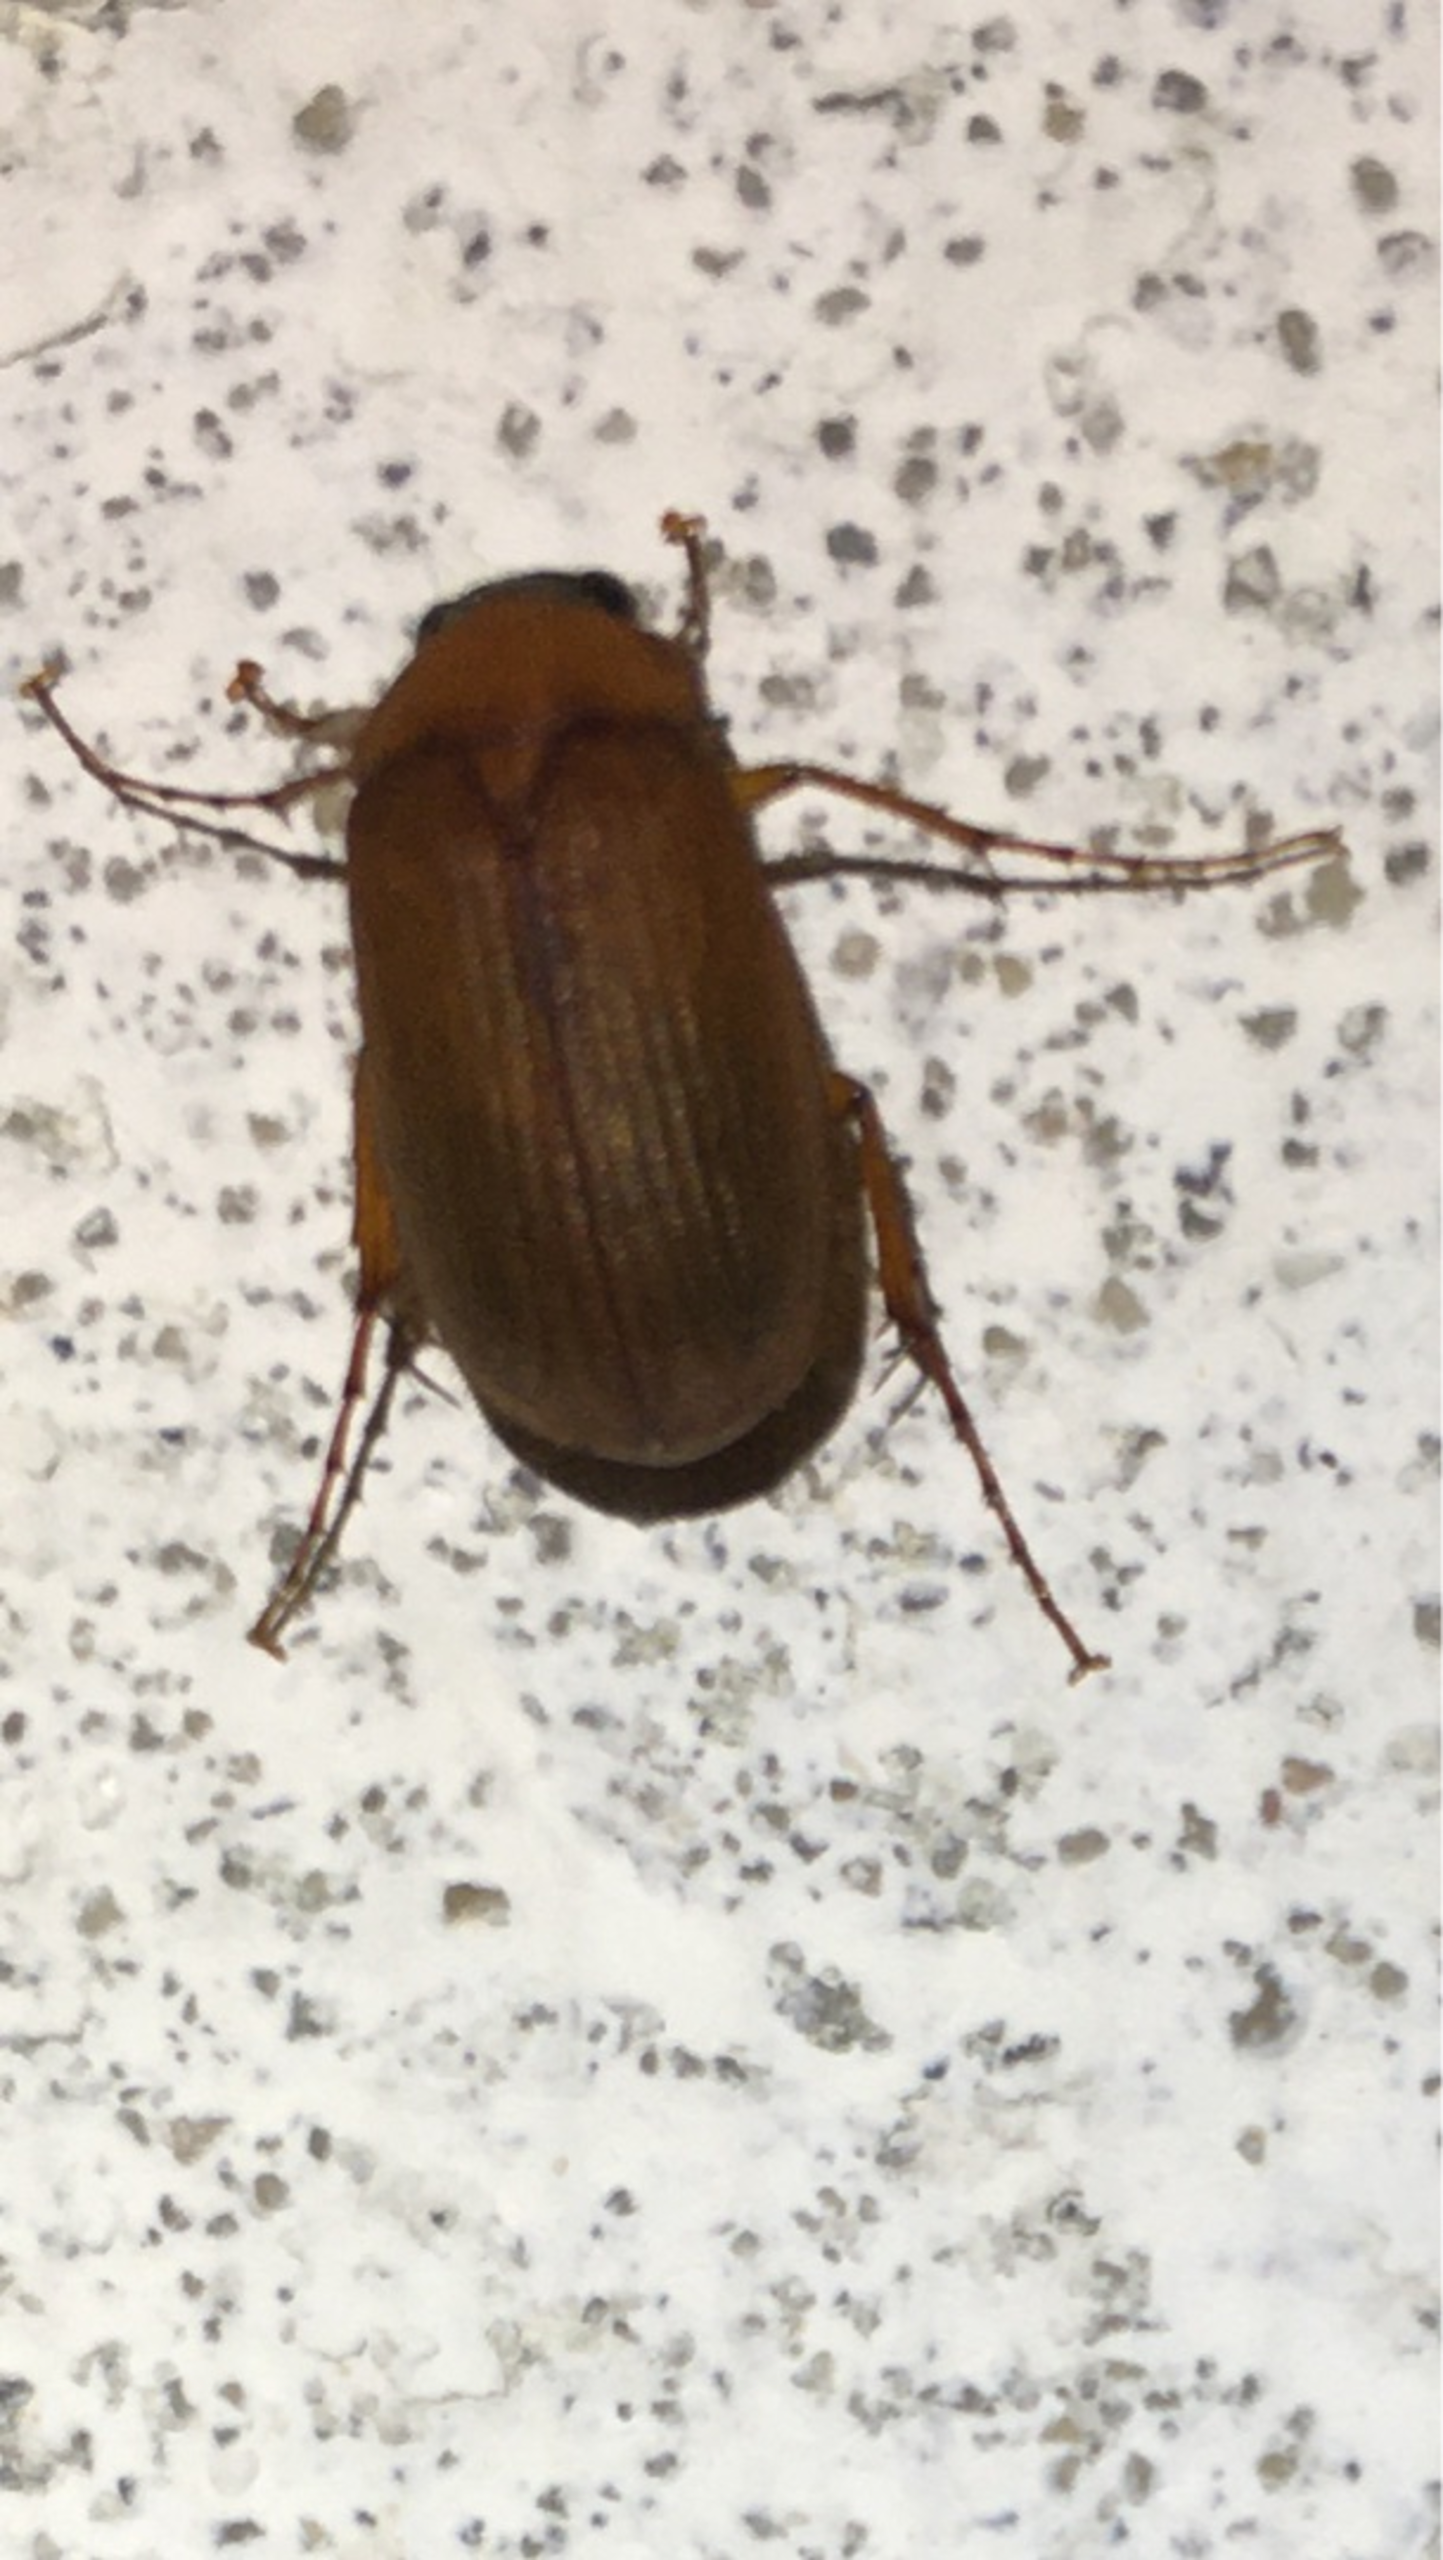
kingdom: Animalia
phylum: Arthropoda
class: Insecta
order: Coleoptera
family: Scarabaeidae
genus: Serica
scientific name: Serica brunnea
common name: Natoldenborre
